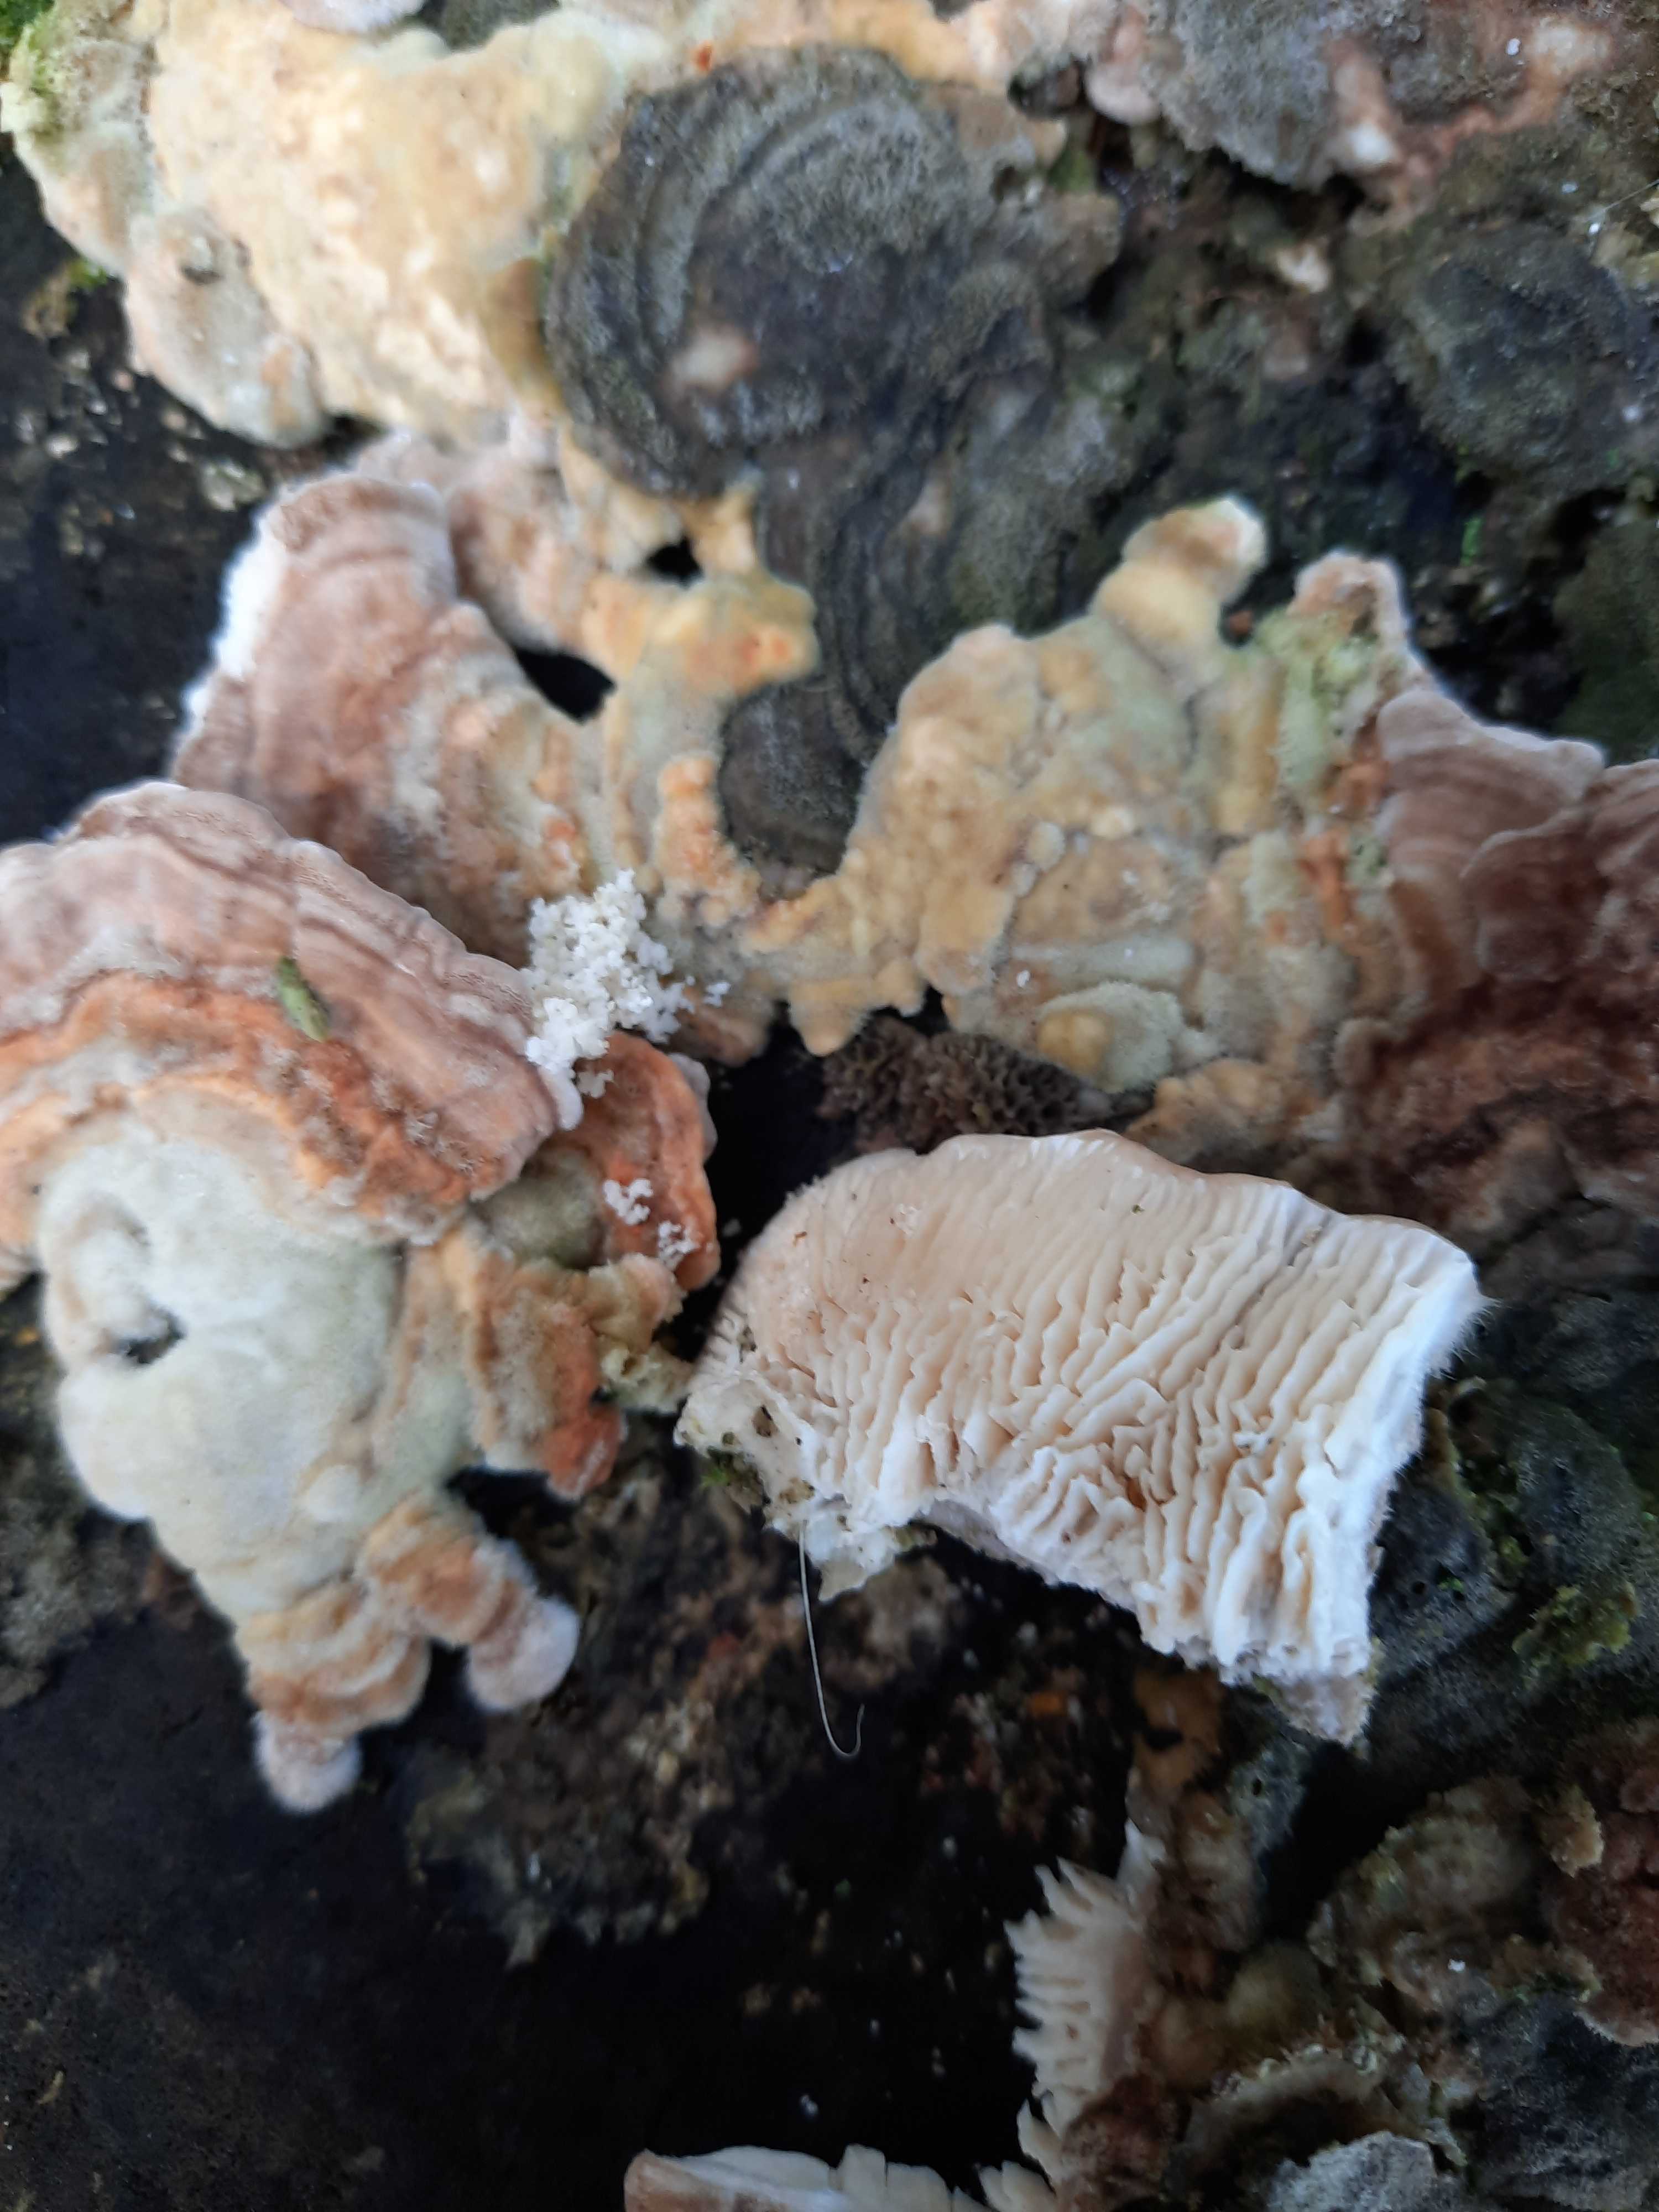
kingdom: Fungi
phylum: Basidiomycota
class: Agaricomycetes
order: Polyporales
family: Polyporaceae
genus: Lenzites
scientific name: Lenzites betulinus
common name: birke-læderporesvamp
